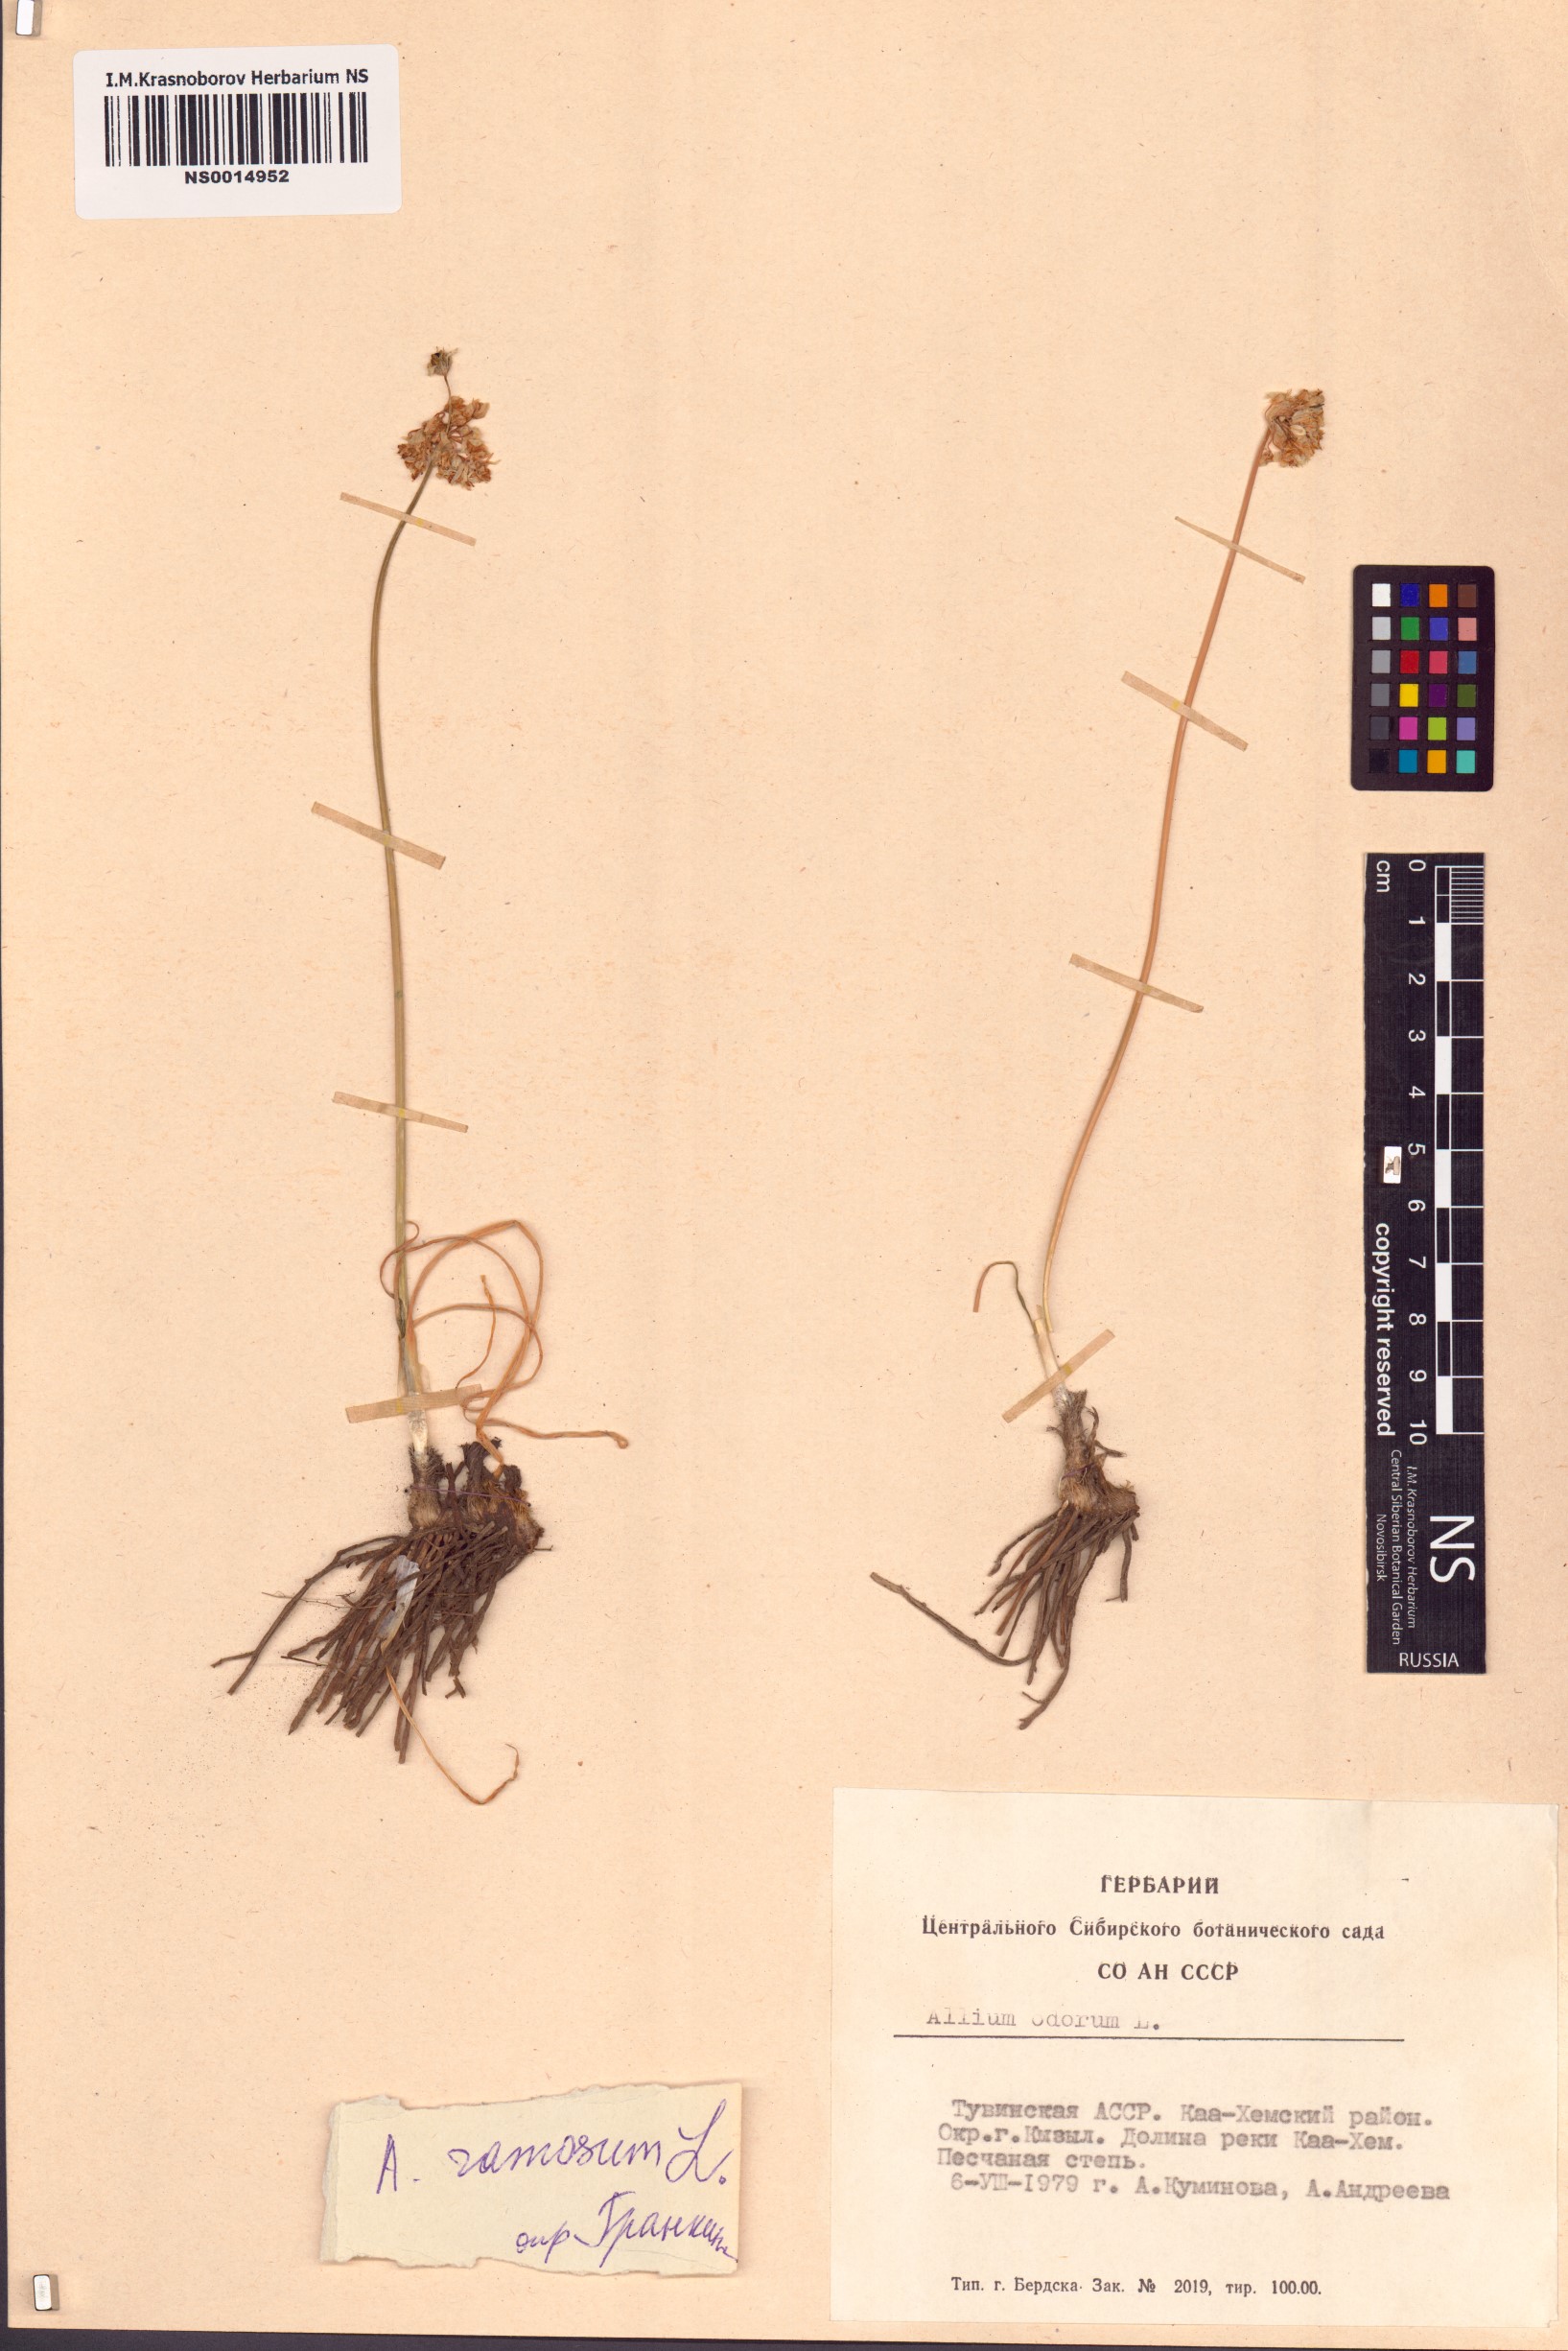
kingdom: Plantae
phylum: Tracheophyta
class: Liliopsida
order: Asparagales
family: Amaryllidaceae
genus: Allium
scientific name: Allium ramosum
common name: Fragrant garlic
